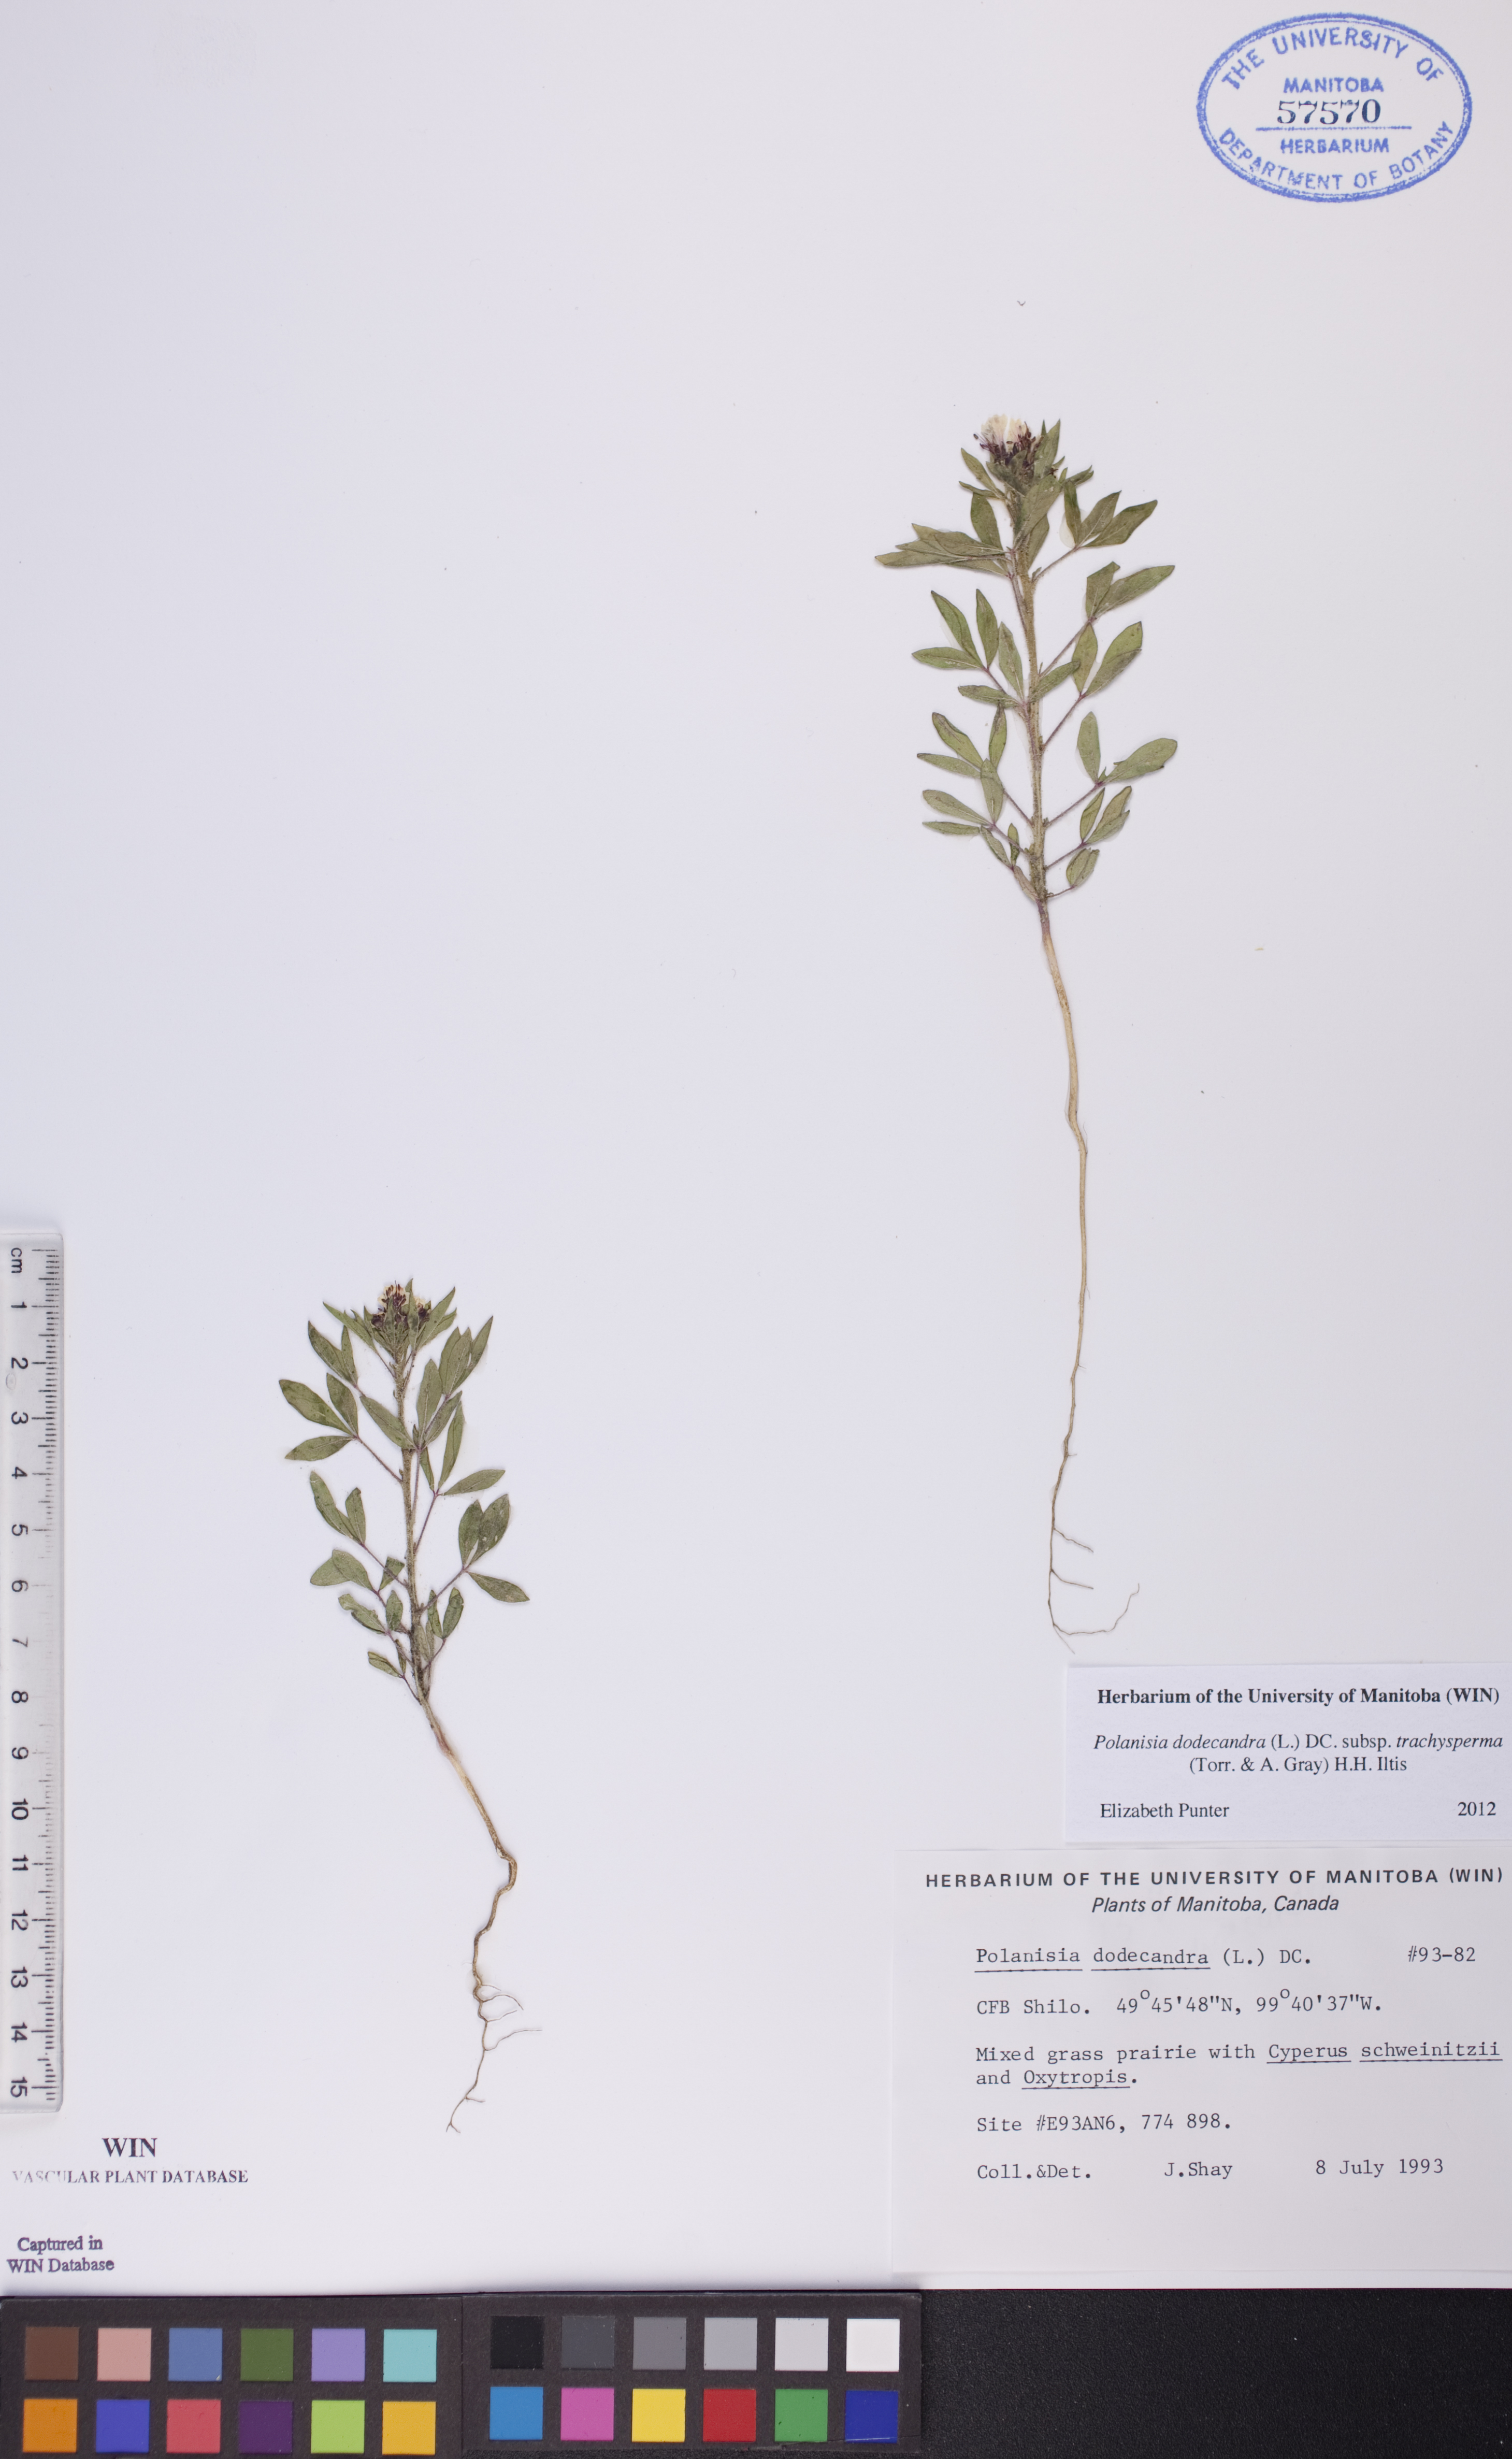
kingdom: Plantae
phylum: Tracheophyta
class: Magnoliopsida
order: Brassicales
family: Cleomaceae
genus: Polanisia
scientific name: Polanisia trachysperma
